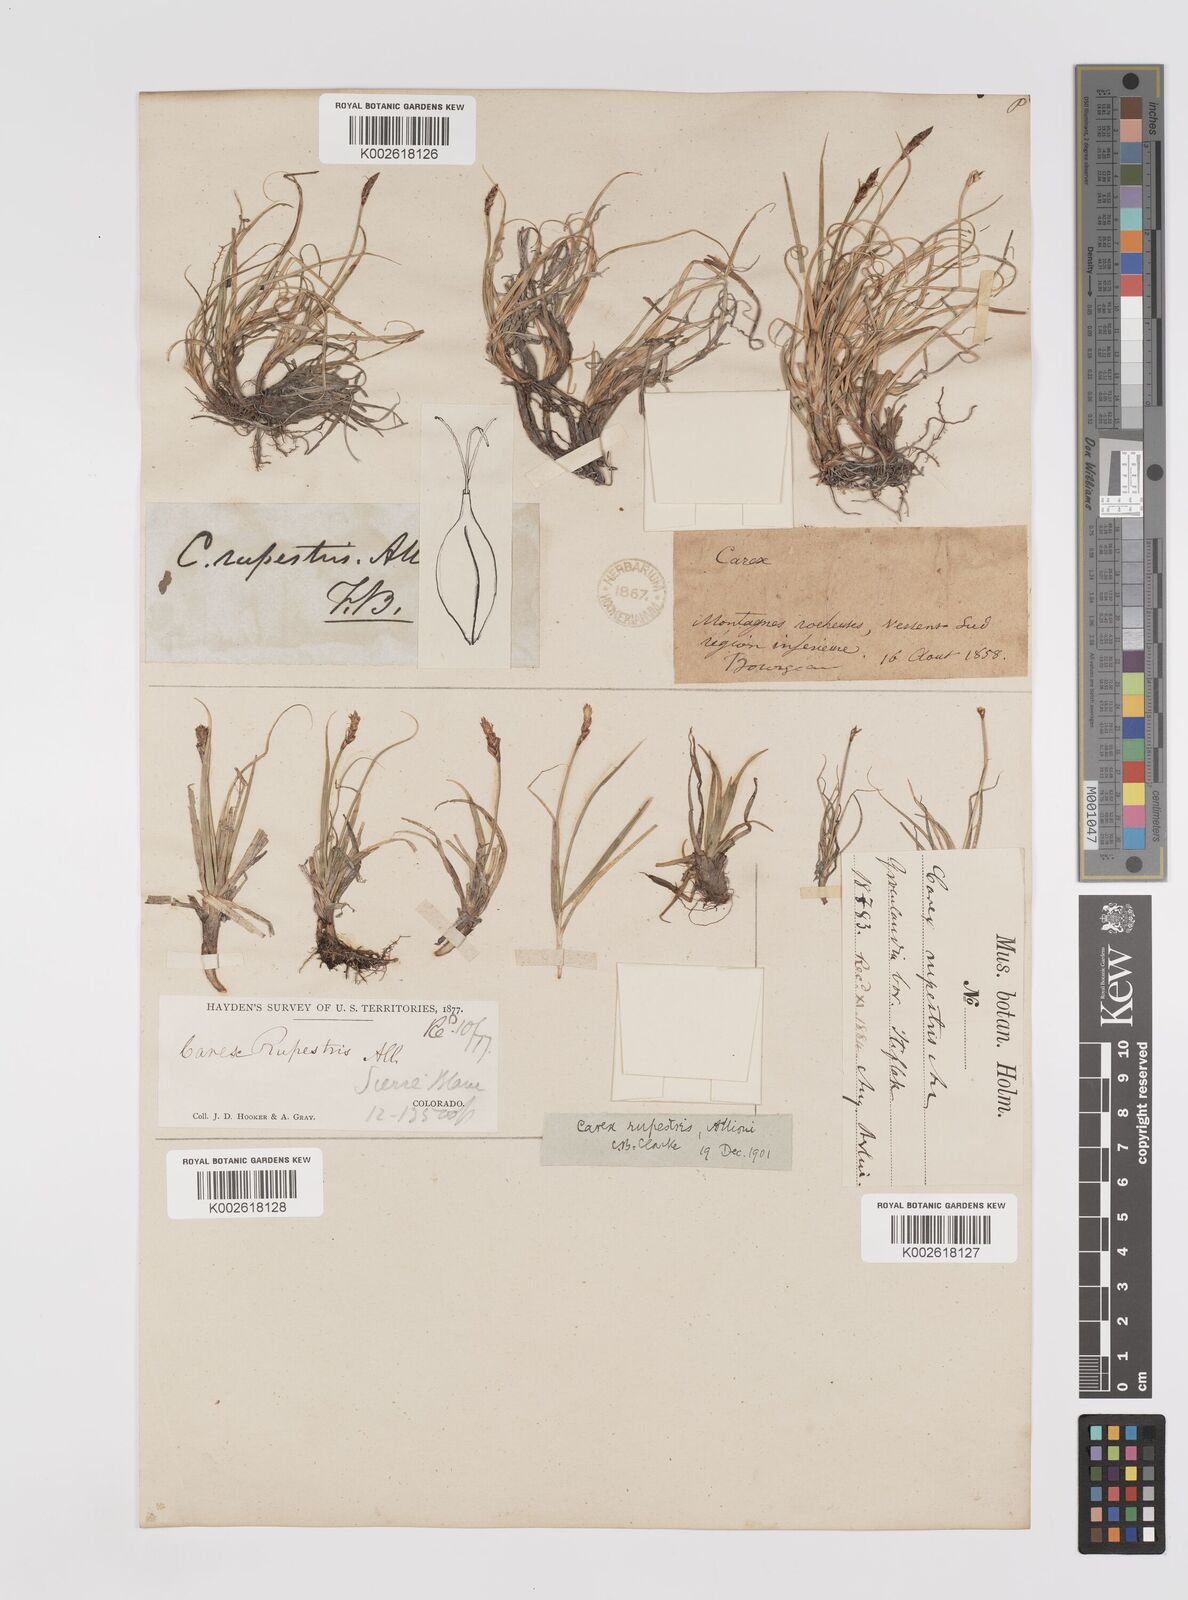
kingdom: Plantae
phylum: Tracheophyta
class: Liliopsida
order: Poales
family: Cyperaceae
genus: Carex
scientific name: Carex rupestris
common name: Rock sedge
